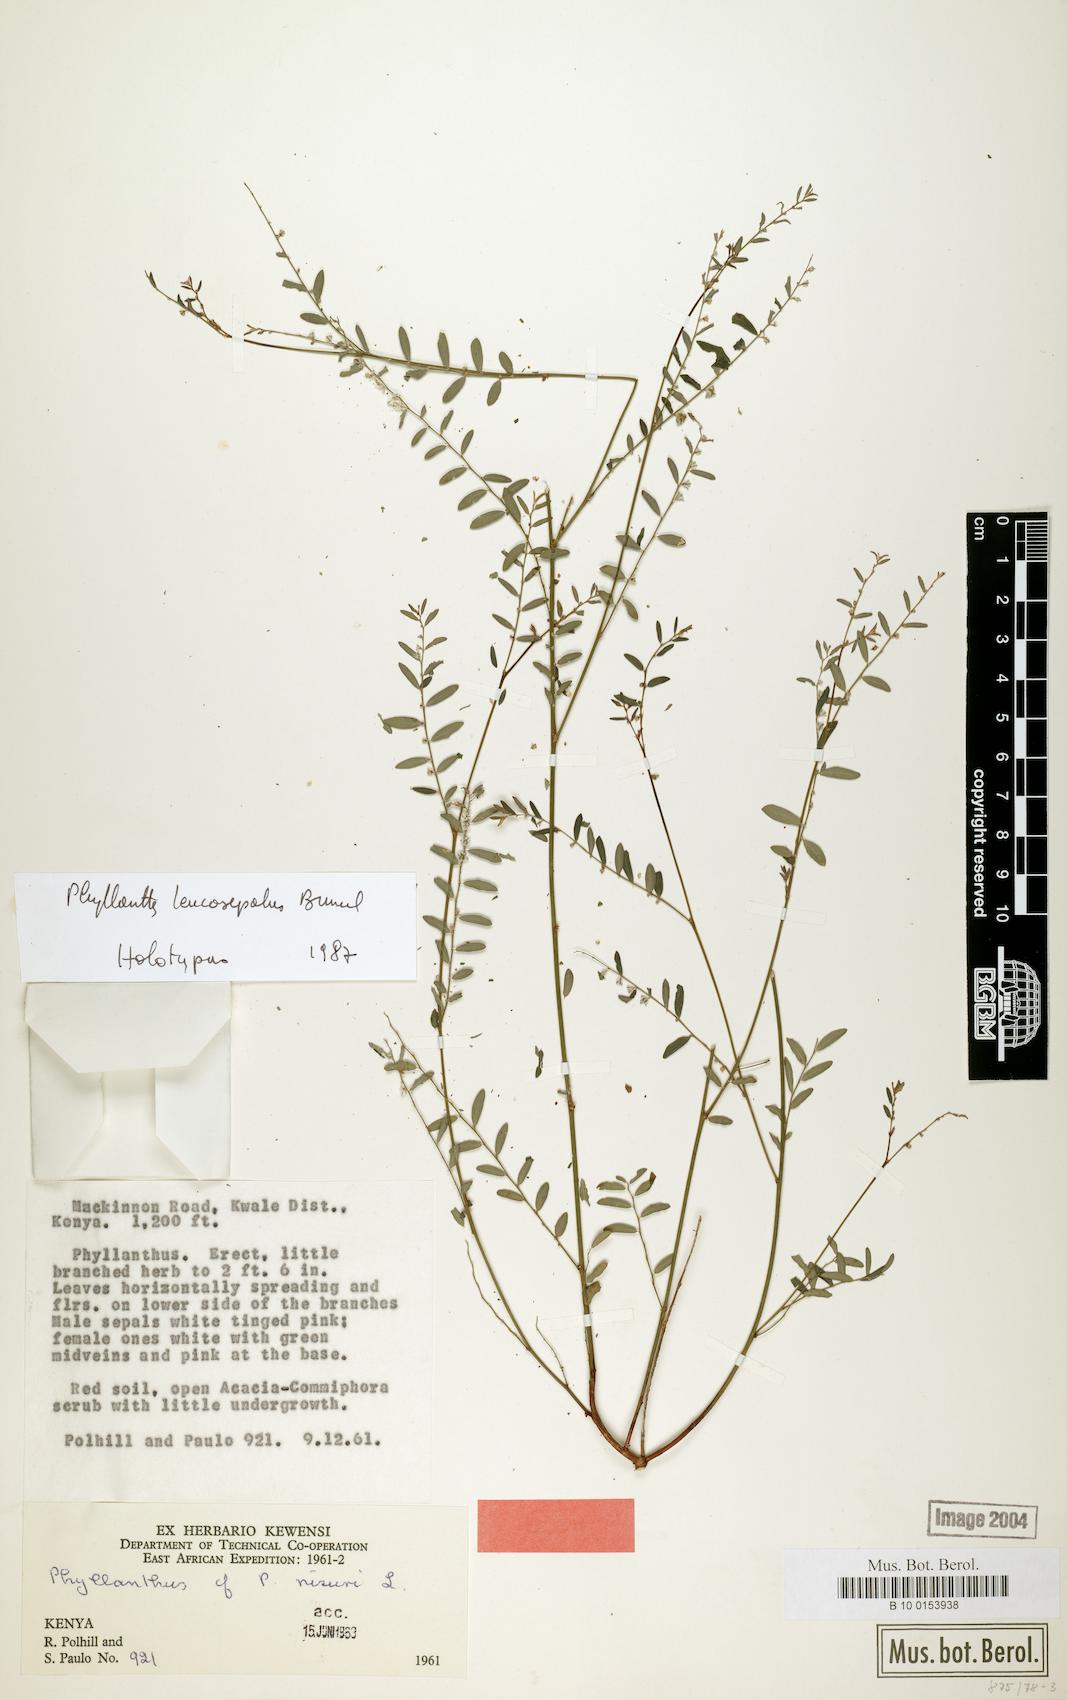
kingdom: Plantae
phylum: Tracheophyta
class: Magnoliopsida
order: Malpighiales
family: Phyllanthaceae
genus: Phyllanthus
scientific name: Phyllanthus leucosepalus
